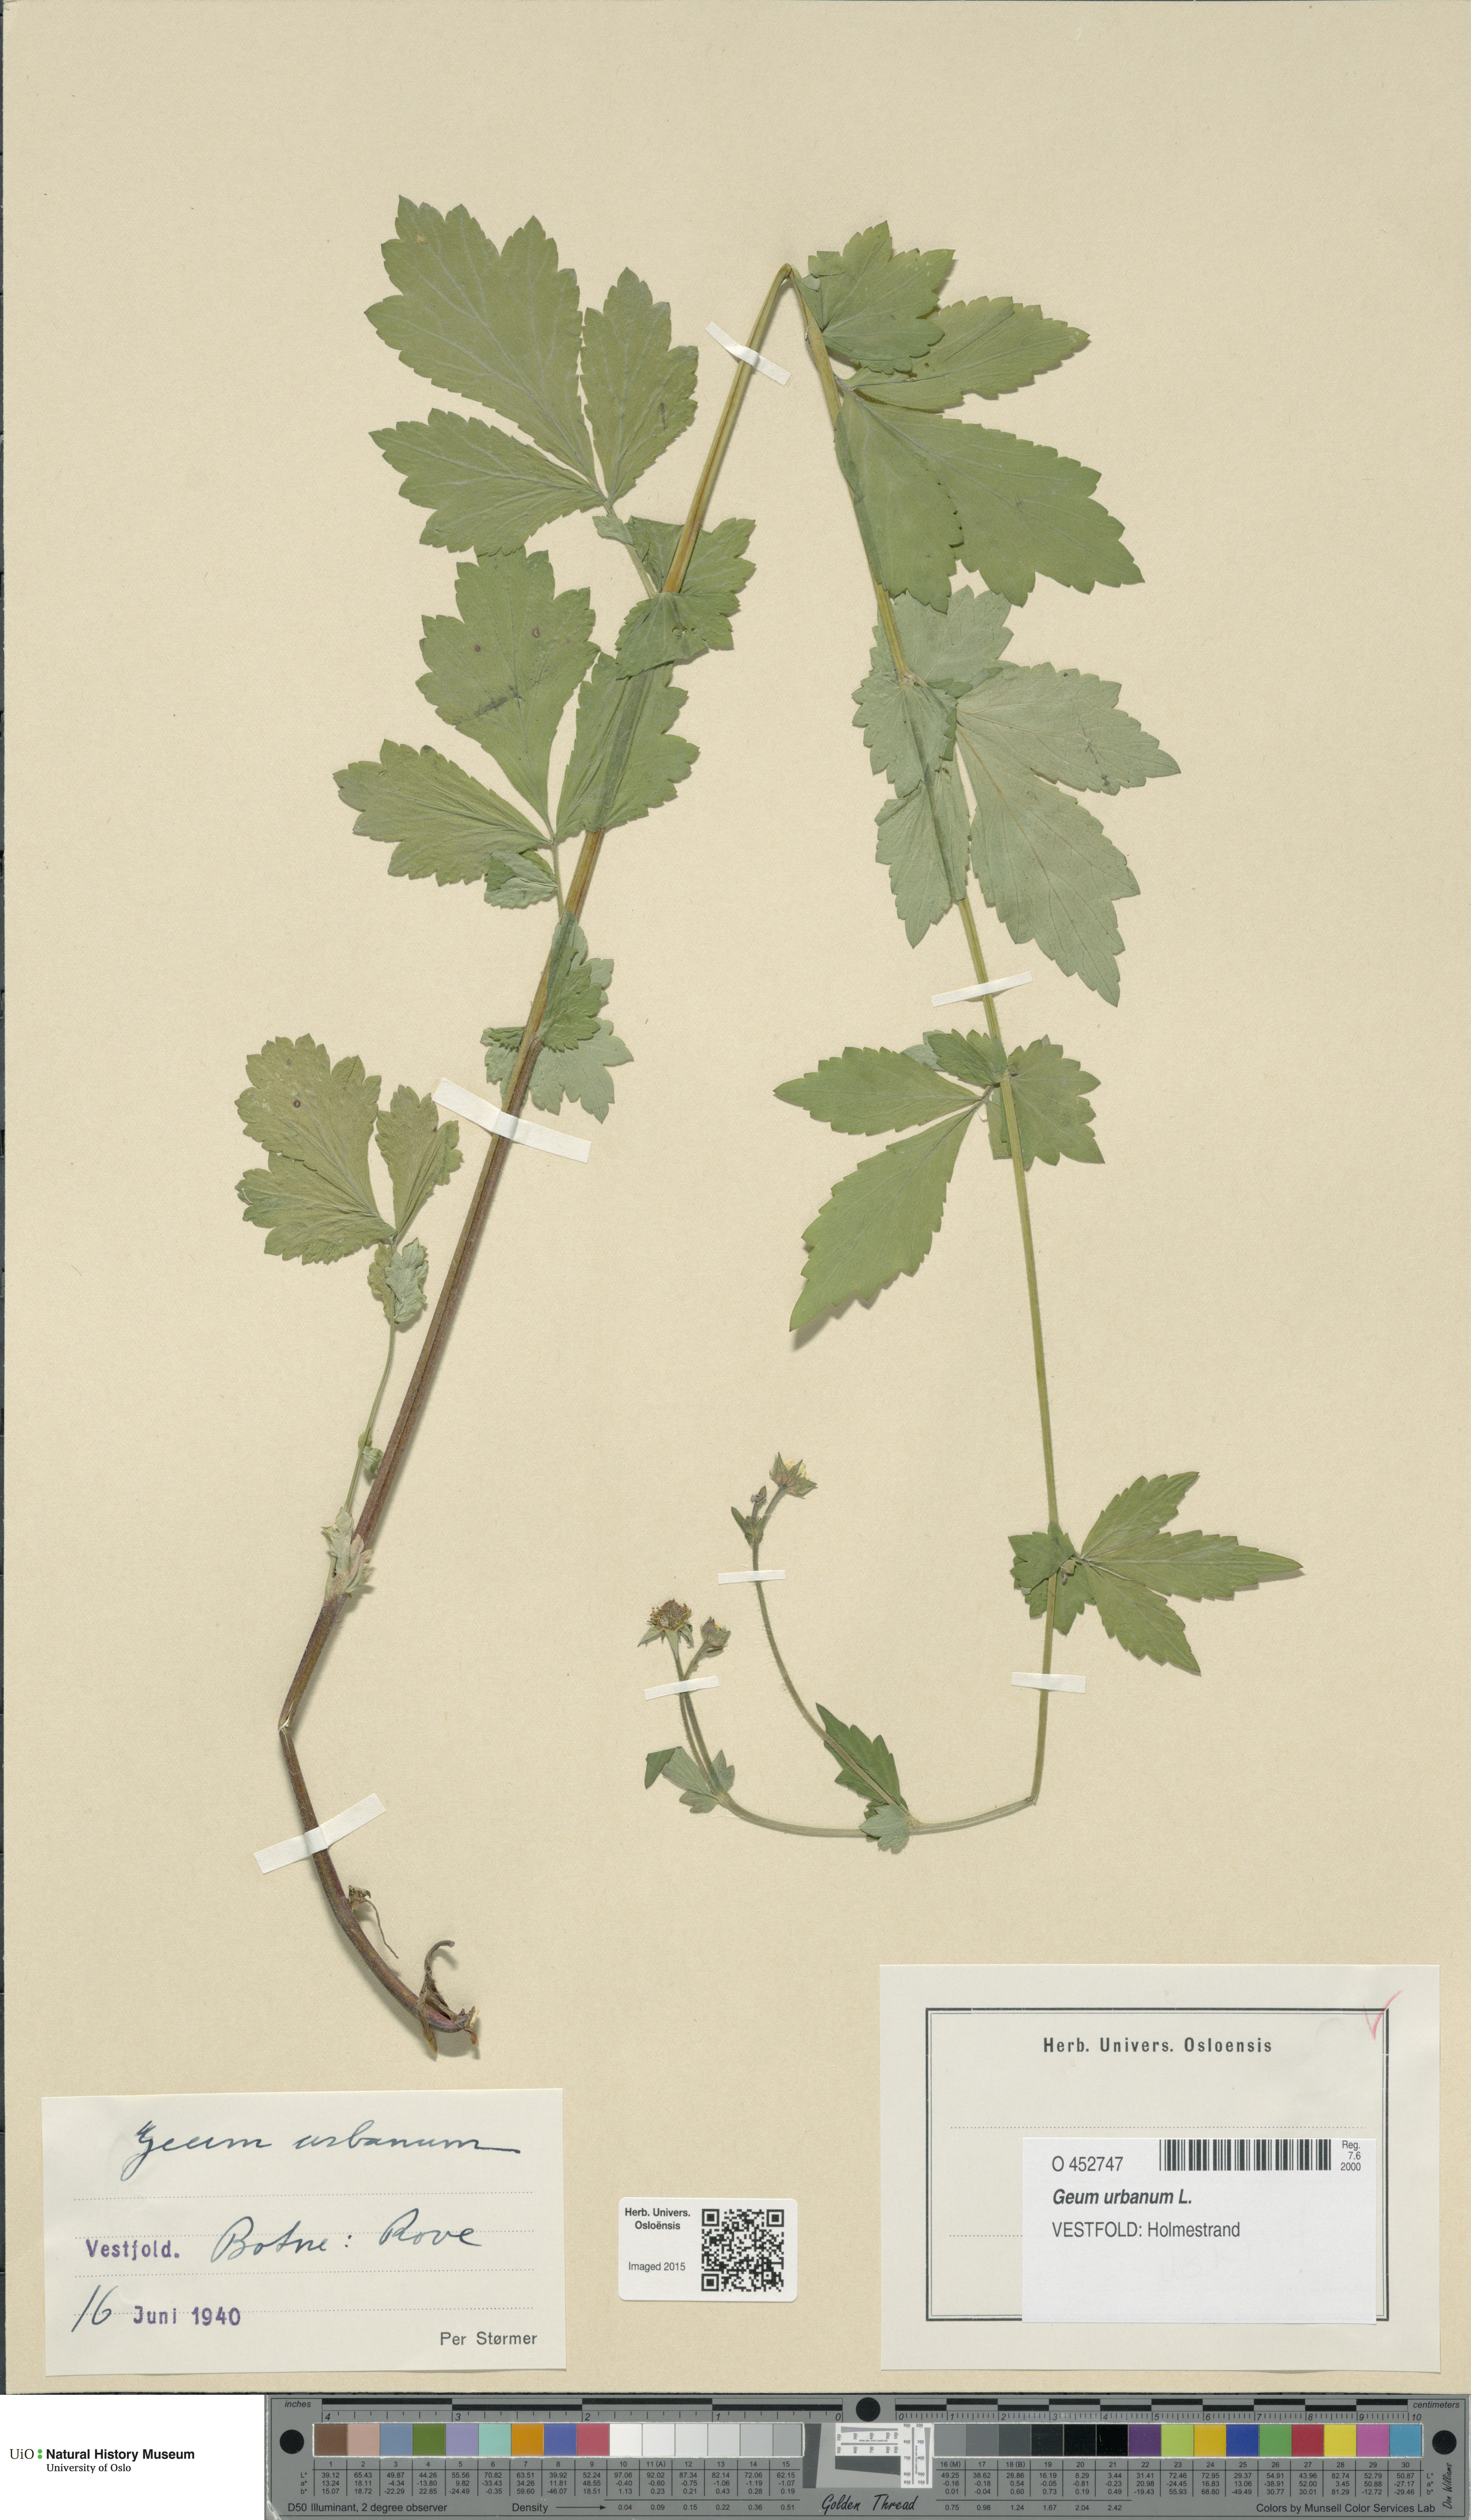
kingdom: Plantae
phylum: Tracheophyta
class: Magnoliopsida
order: Rosales
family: Rosaceae
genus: Geum
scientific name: Geum urbanum
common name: Wood avens
